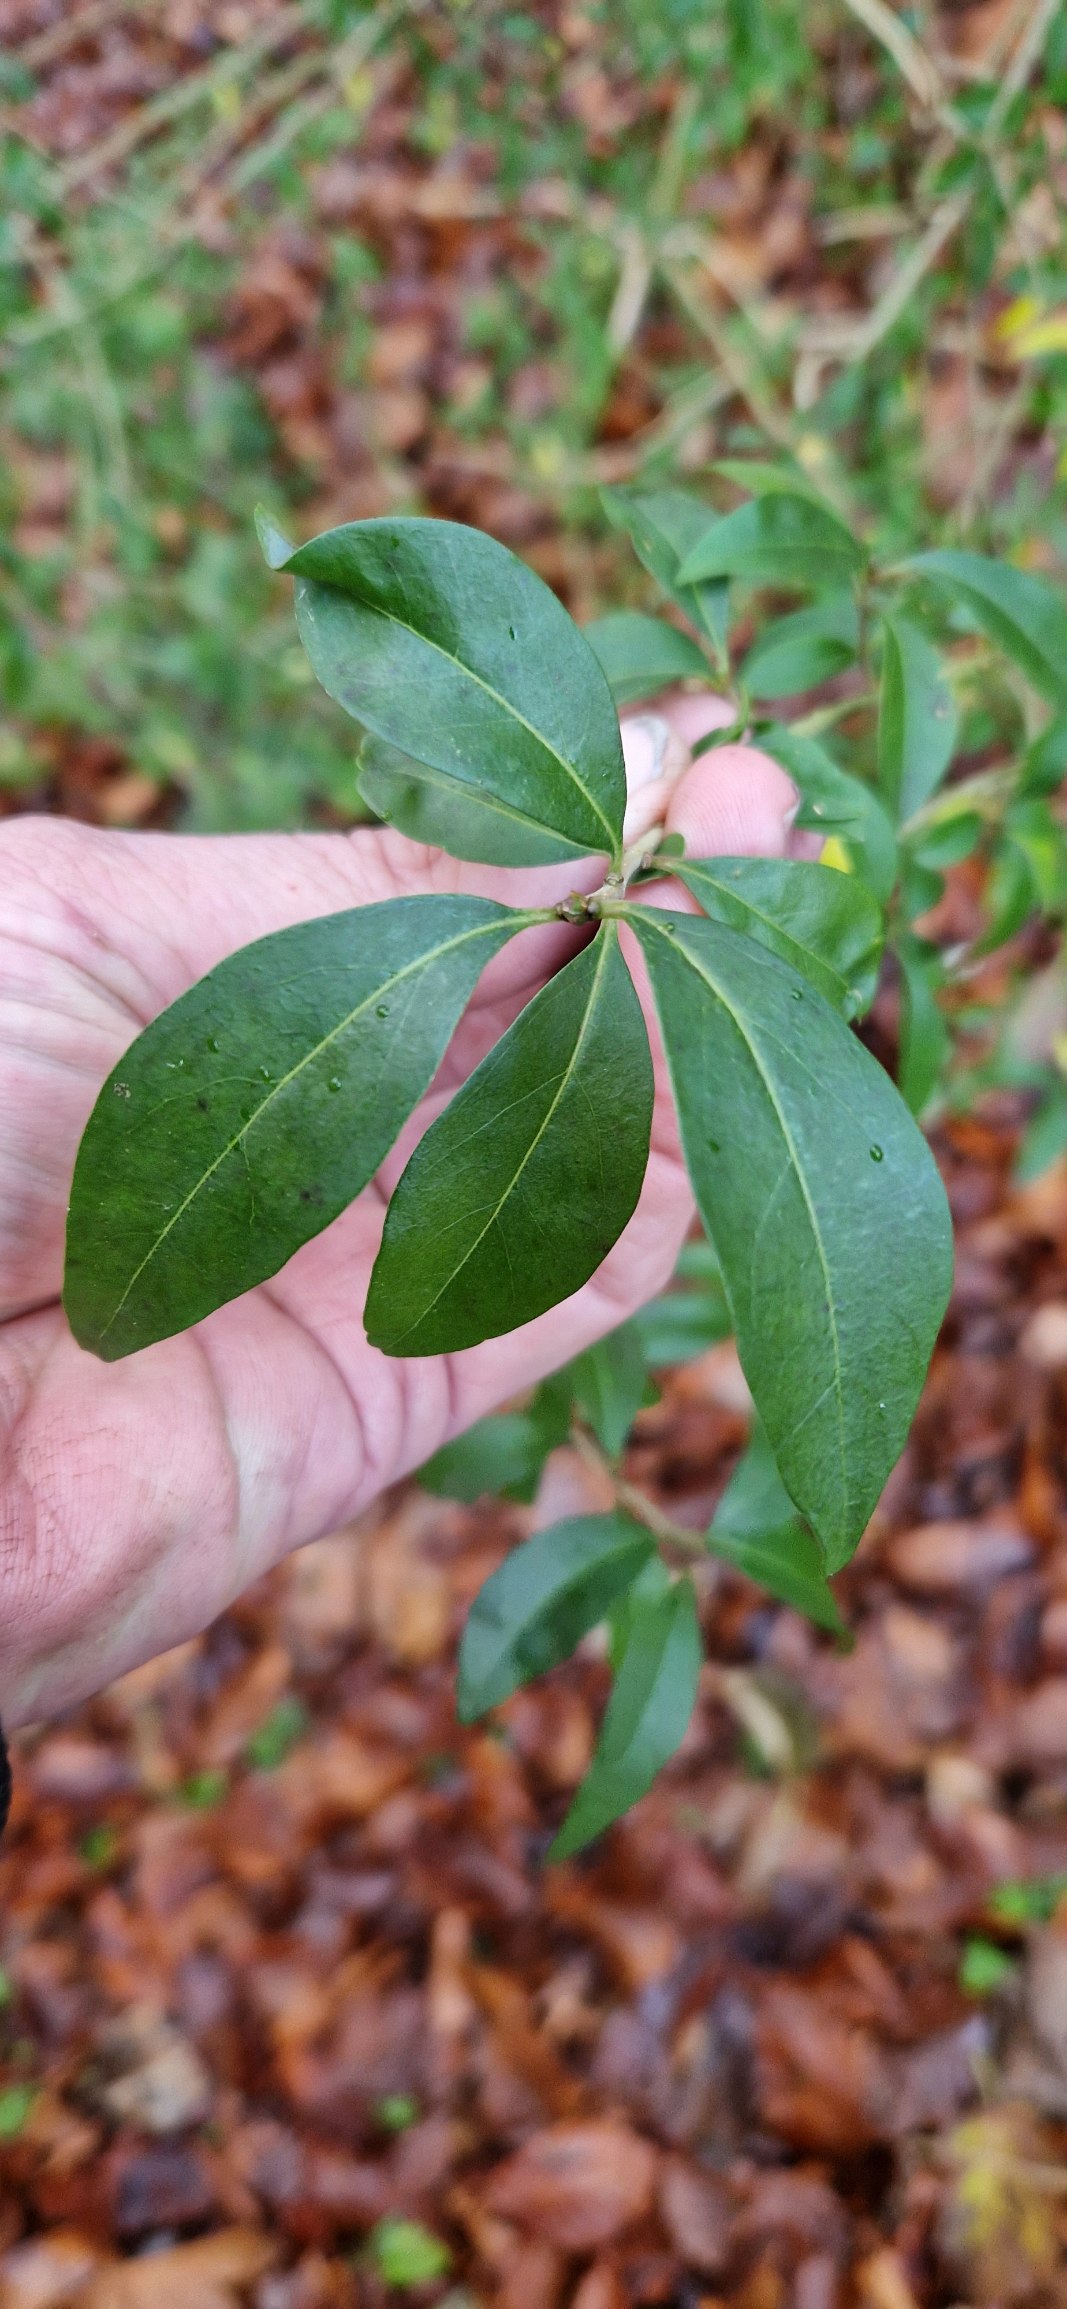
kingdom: Plantae
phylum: Tracheophyta
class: Magnoliopsida
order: Lamiales
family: Oleaceae
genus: Ligustrum
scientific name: Ligustrum vulgare
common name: Liguster
